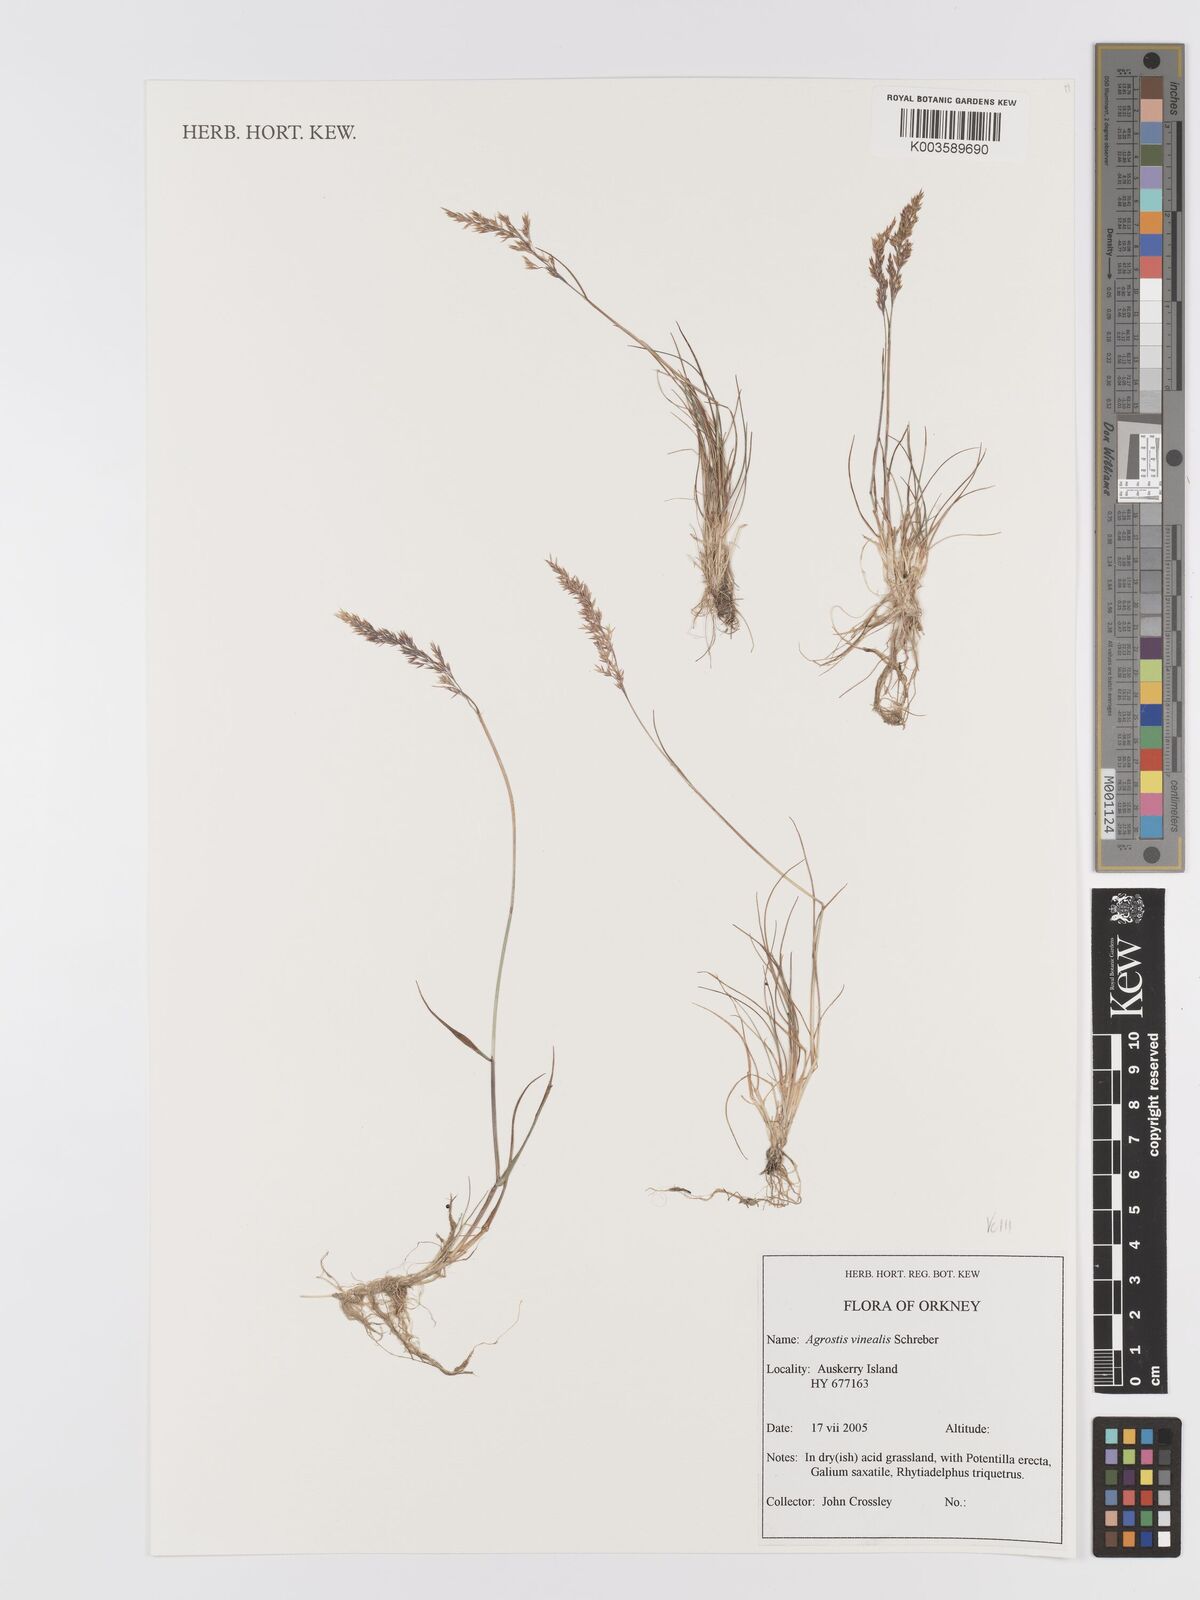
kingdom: Plantae
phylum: Tracheophyta
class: Liliopsida
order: Poales
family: Poaceae
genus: Agrostis
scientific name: Agrostis
